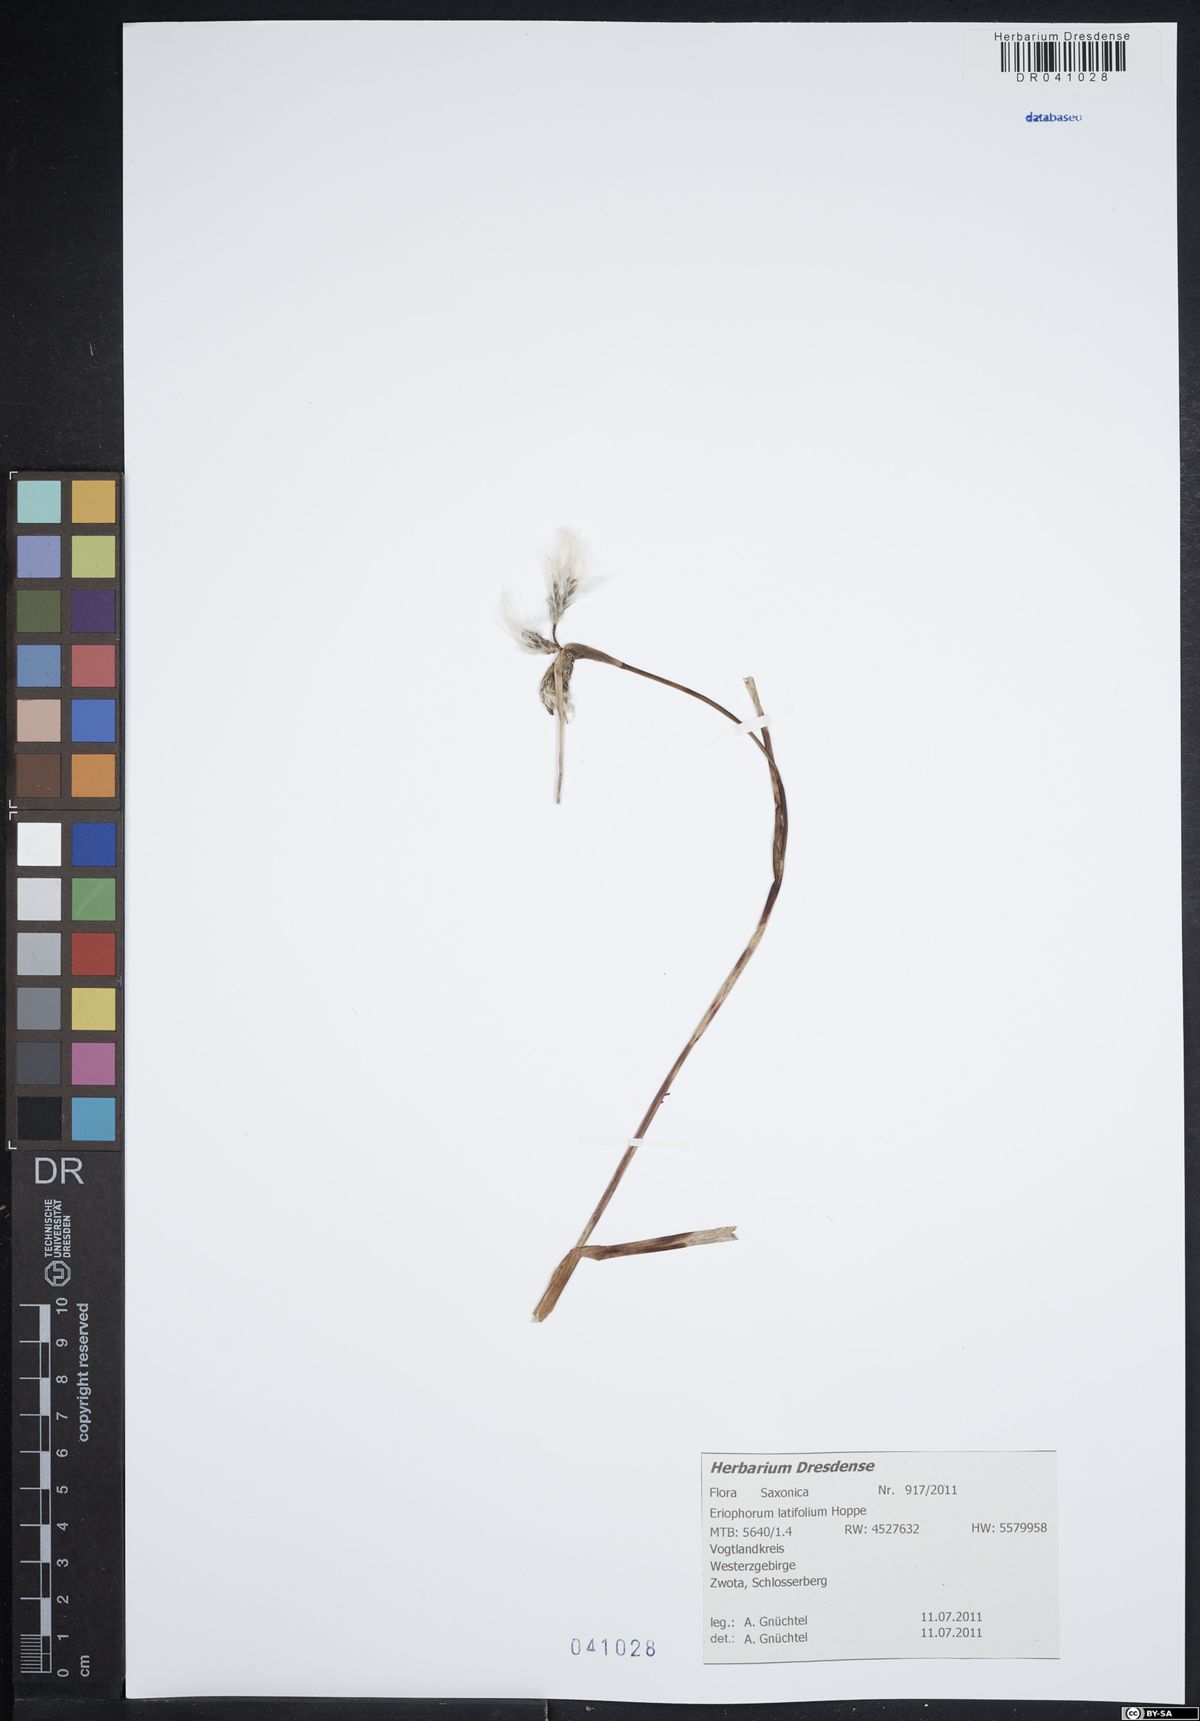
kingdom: Plantae
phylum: Tracheophyta
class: Liliopsida
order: Poales
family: Cyperaceae
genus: Eriophorum
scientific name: Eriophorum latifolium
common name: Broad-leaved cottongrass
